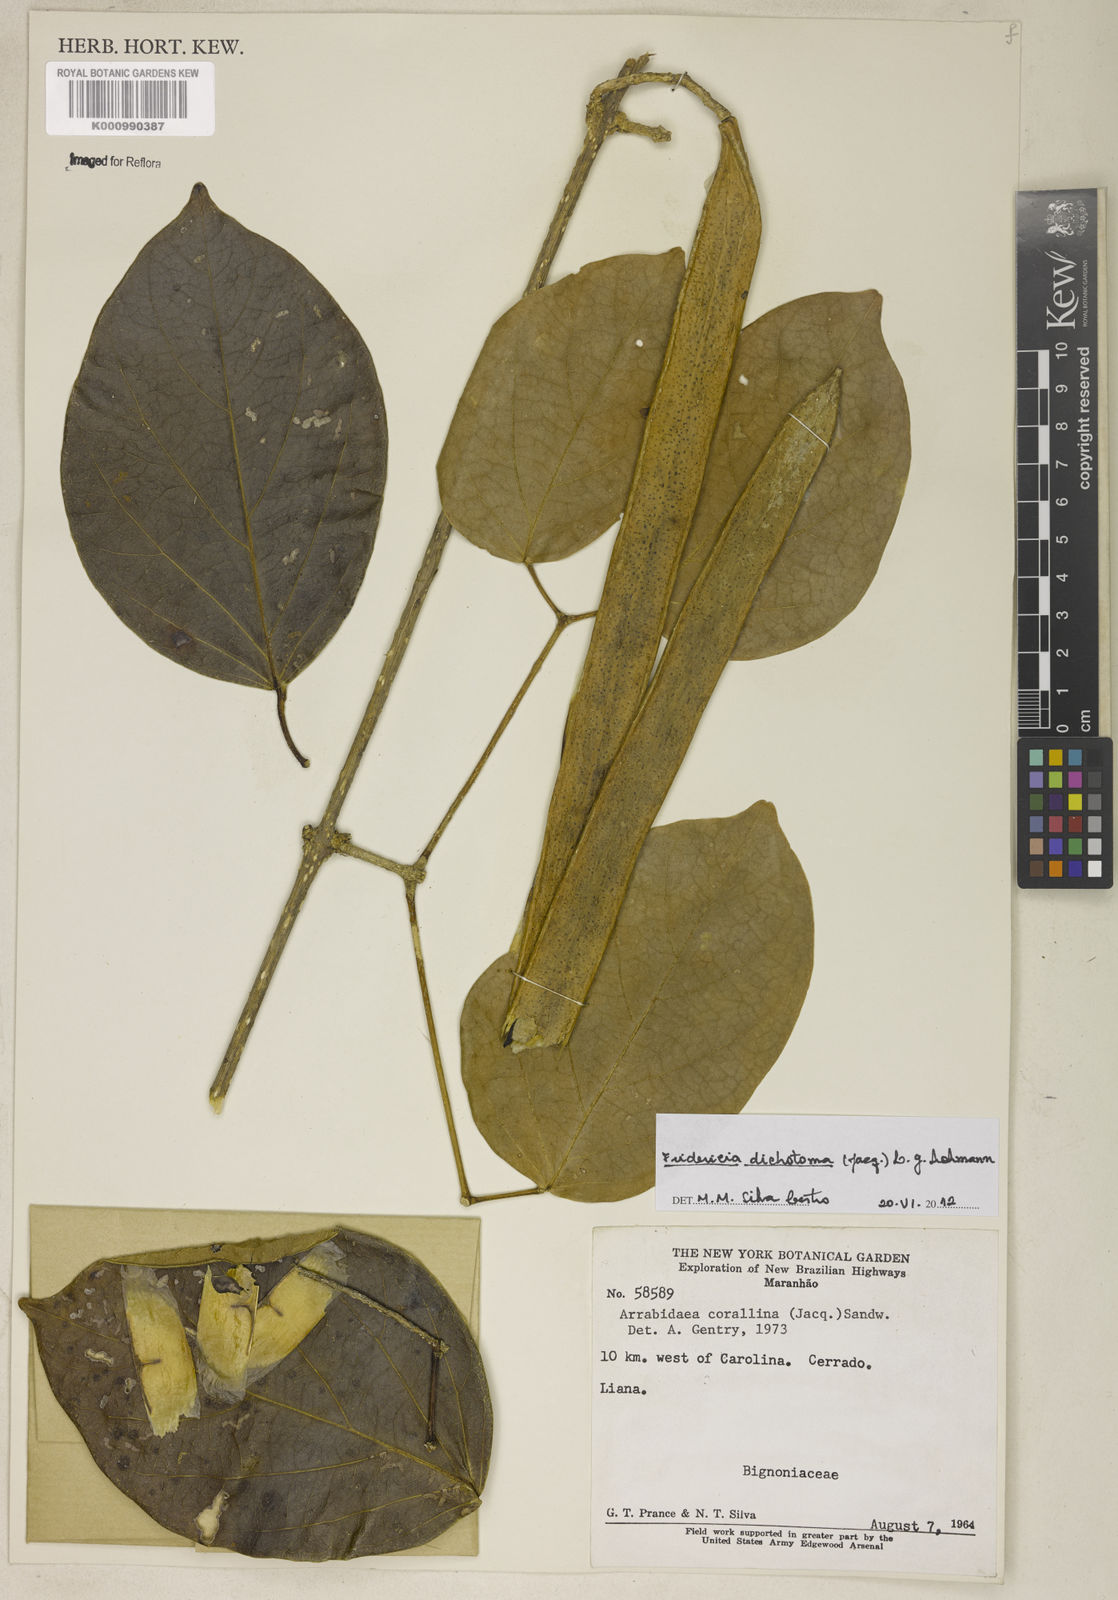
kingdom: Plantae
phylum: Tracheophyta
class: Magnoliopsida
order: Lamiales
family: Bignoniaceae
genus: Tanaecium
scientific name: Tanaecium dichotomum
